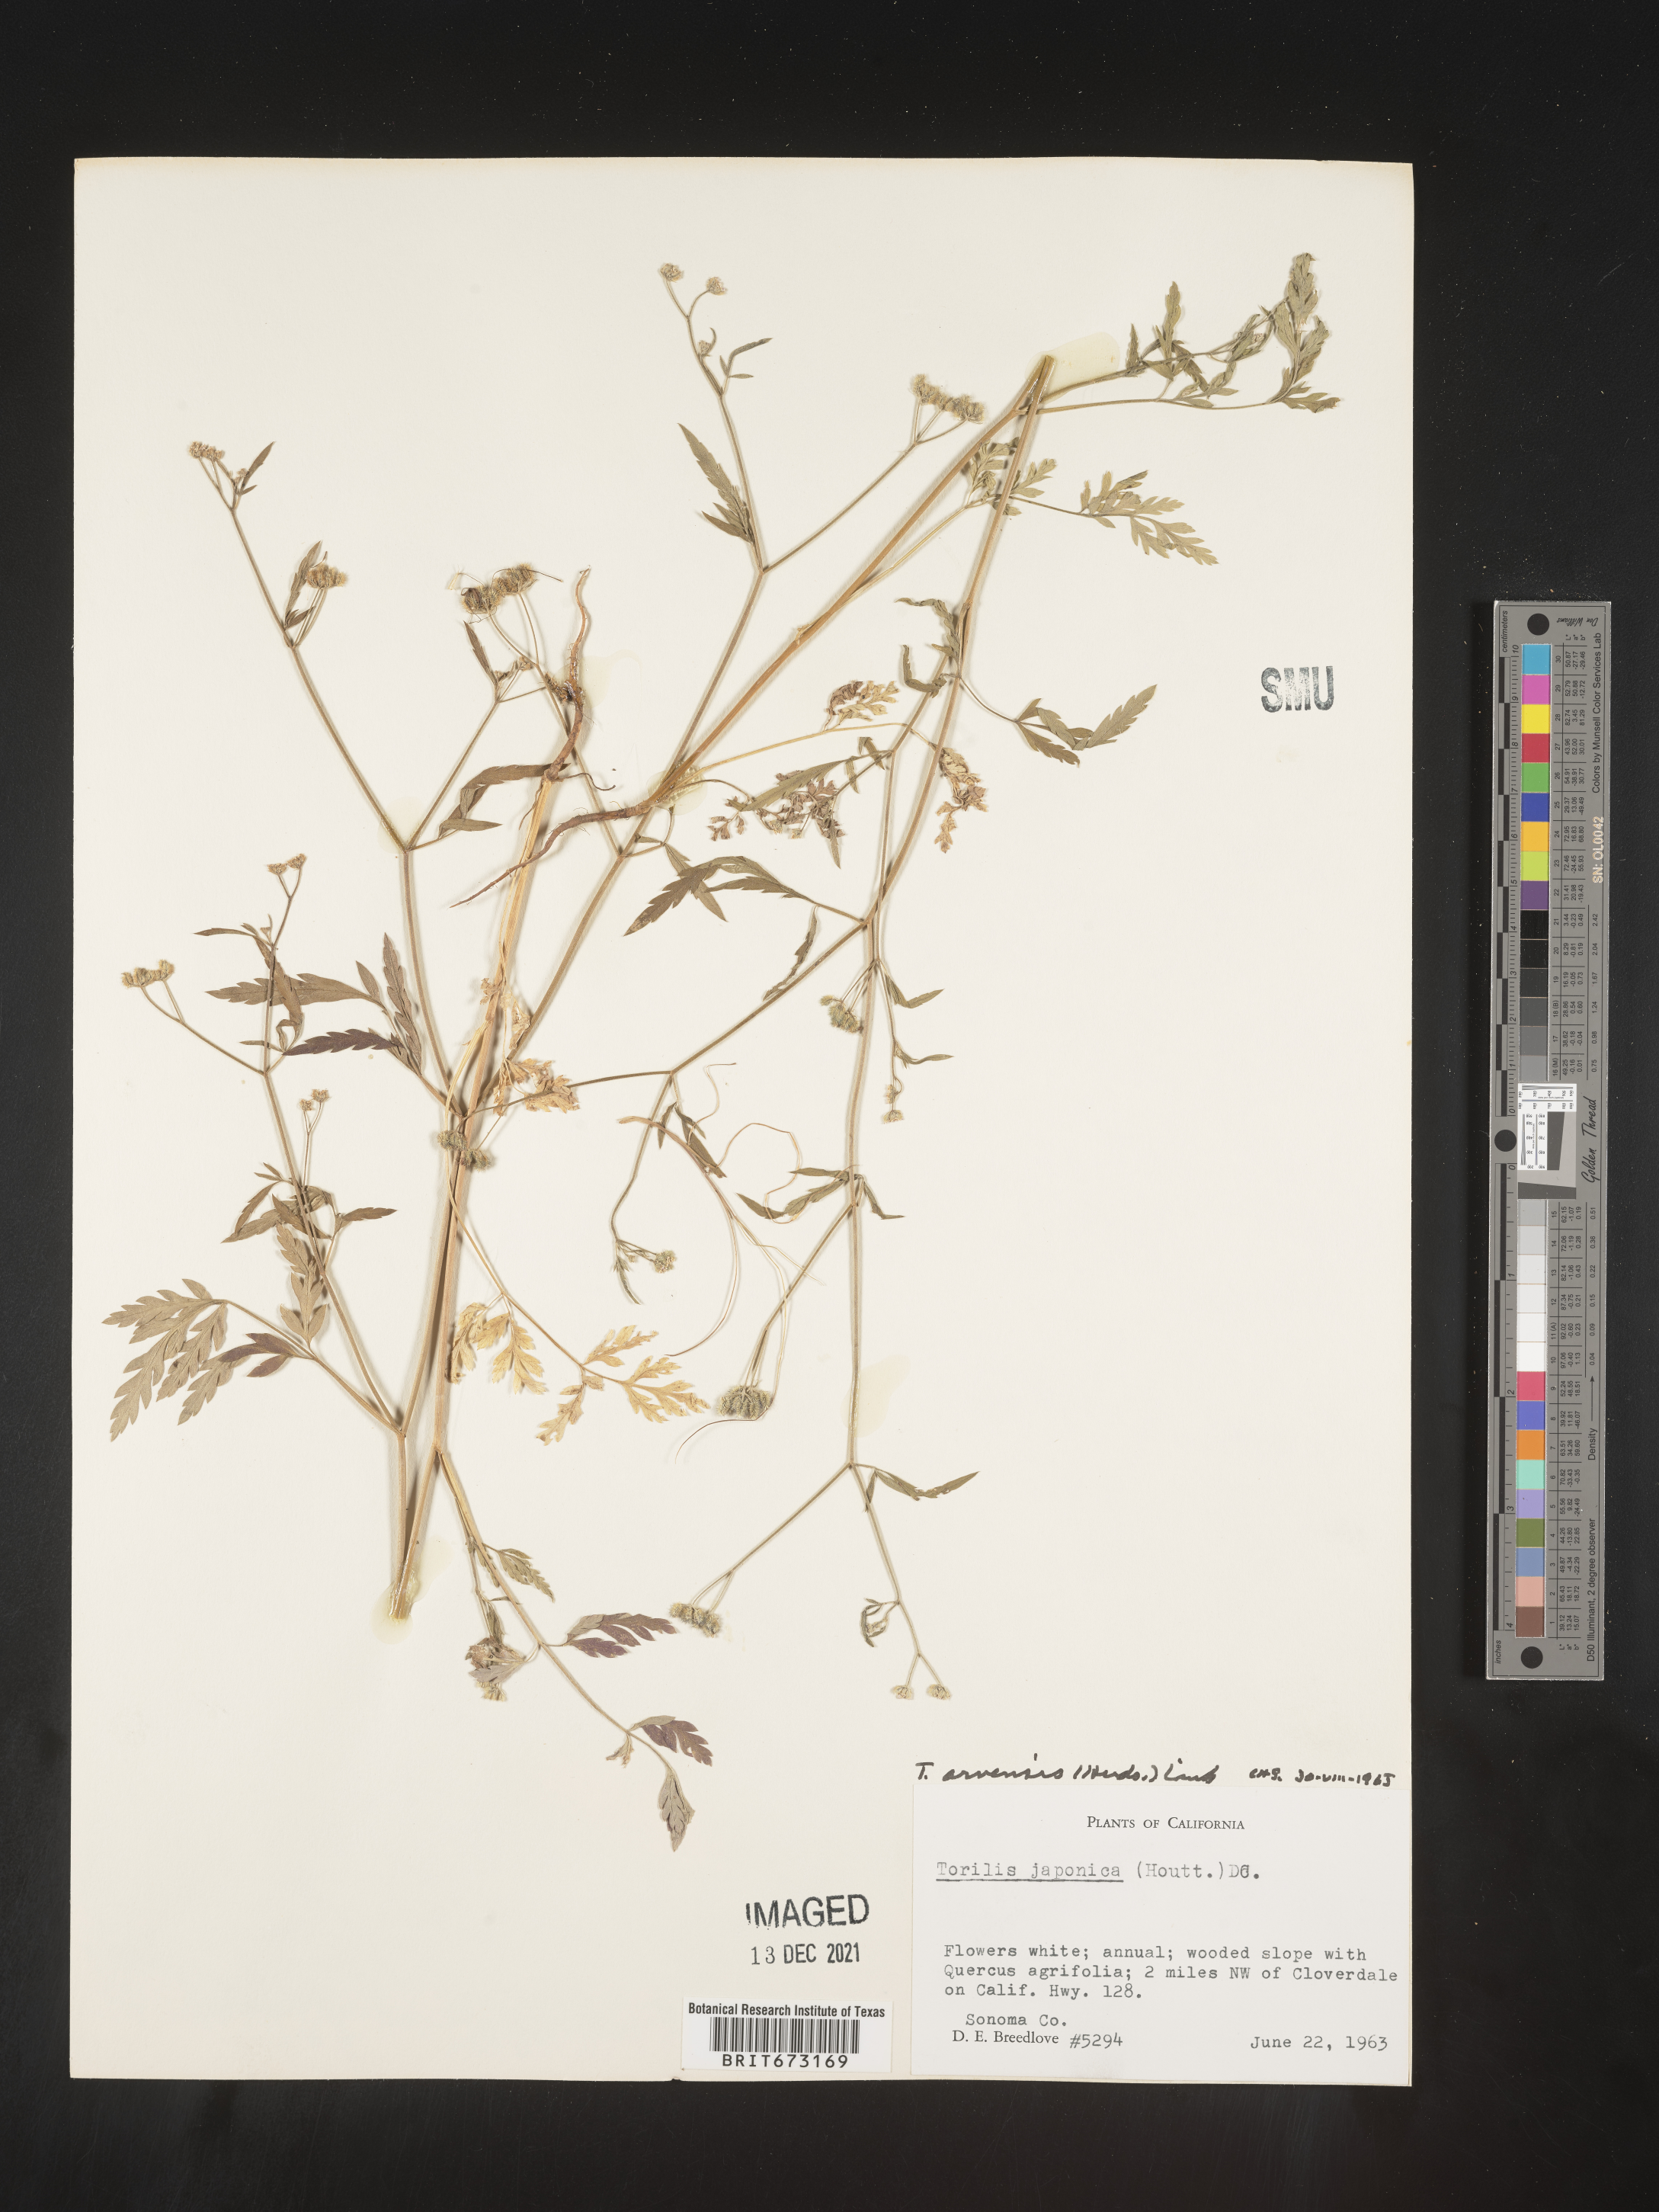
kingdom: Plantae
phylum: Tracheophyta
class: Magnoliopsida
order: Apiales
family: Apiaceae
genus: Torilis
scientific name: Torilis arvensis
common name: Spreading hedge-parsley
